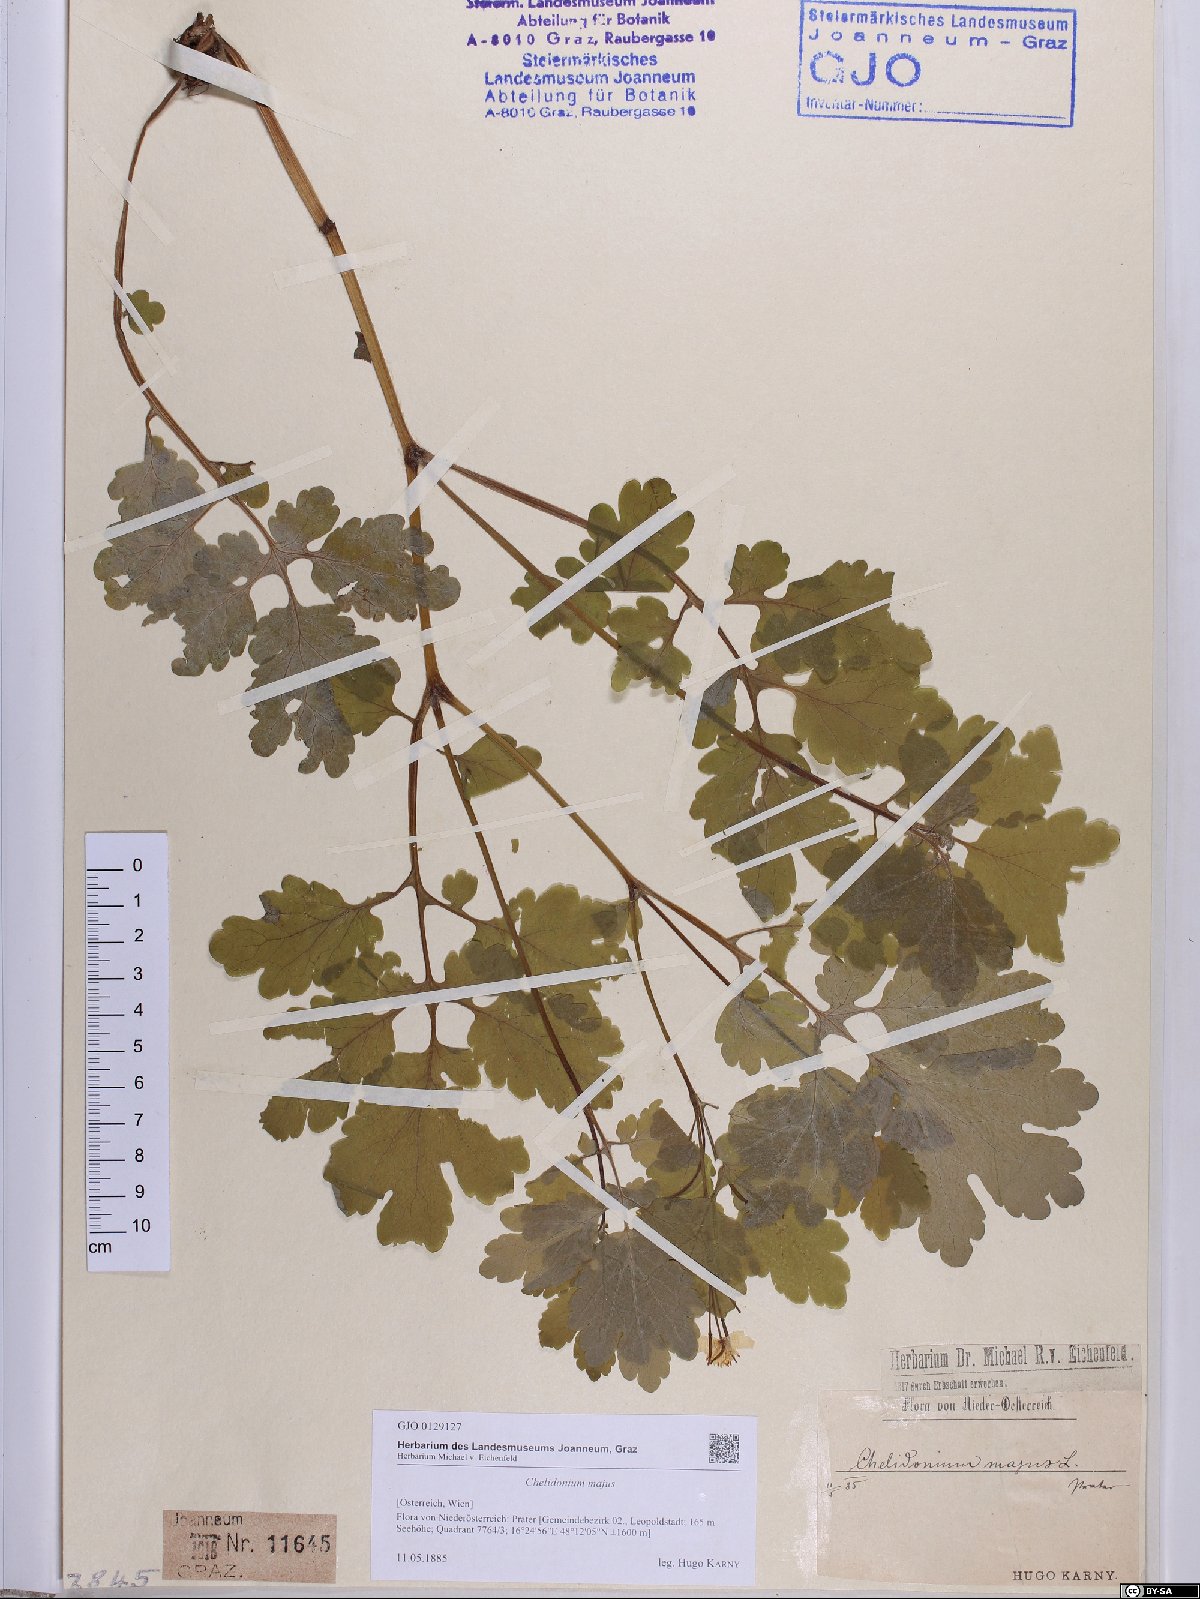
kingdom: Plantae
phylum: Tracheophyta
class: Magnoliopsida
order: Ranunculales
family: Papaveraceae
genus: Chelidonium
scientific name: Chelidonium majus
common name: Greater celandine
